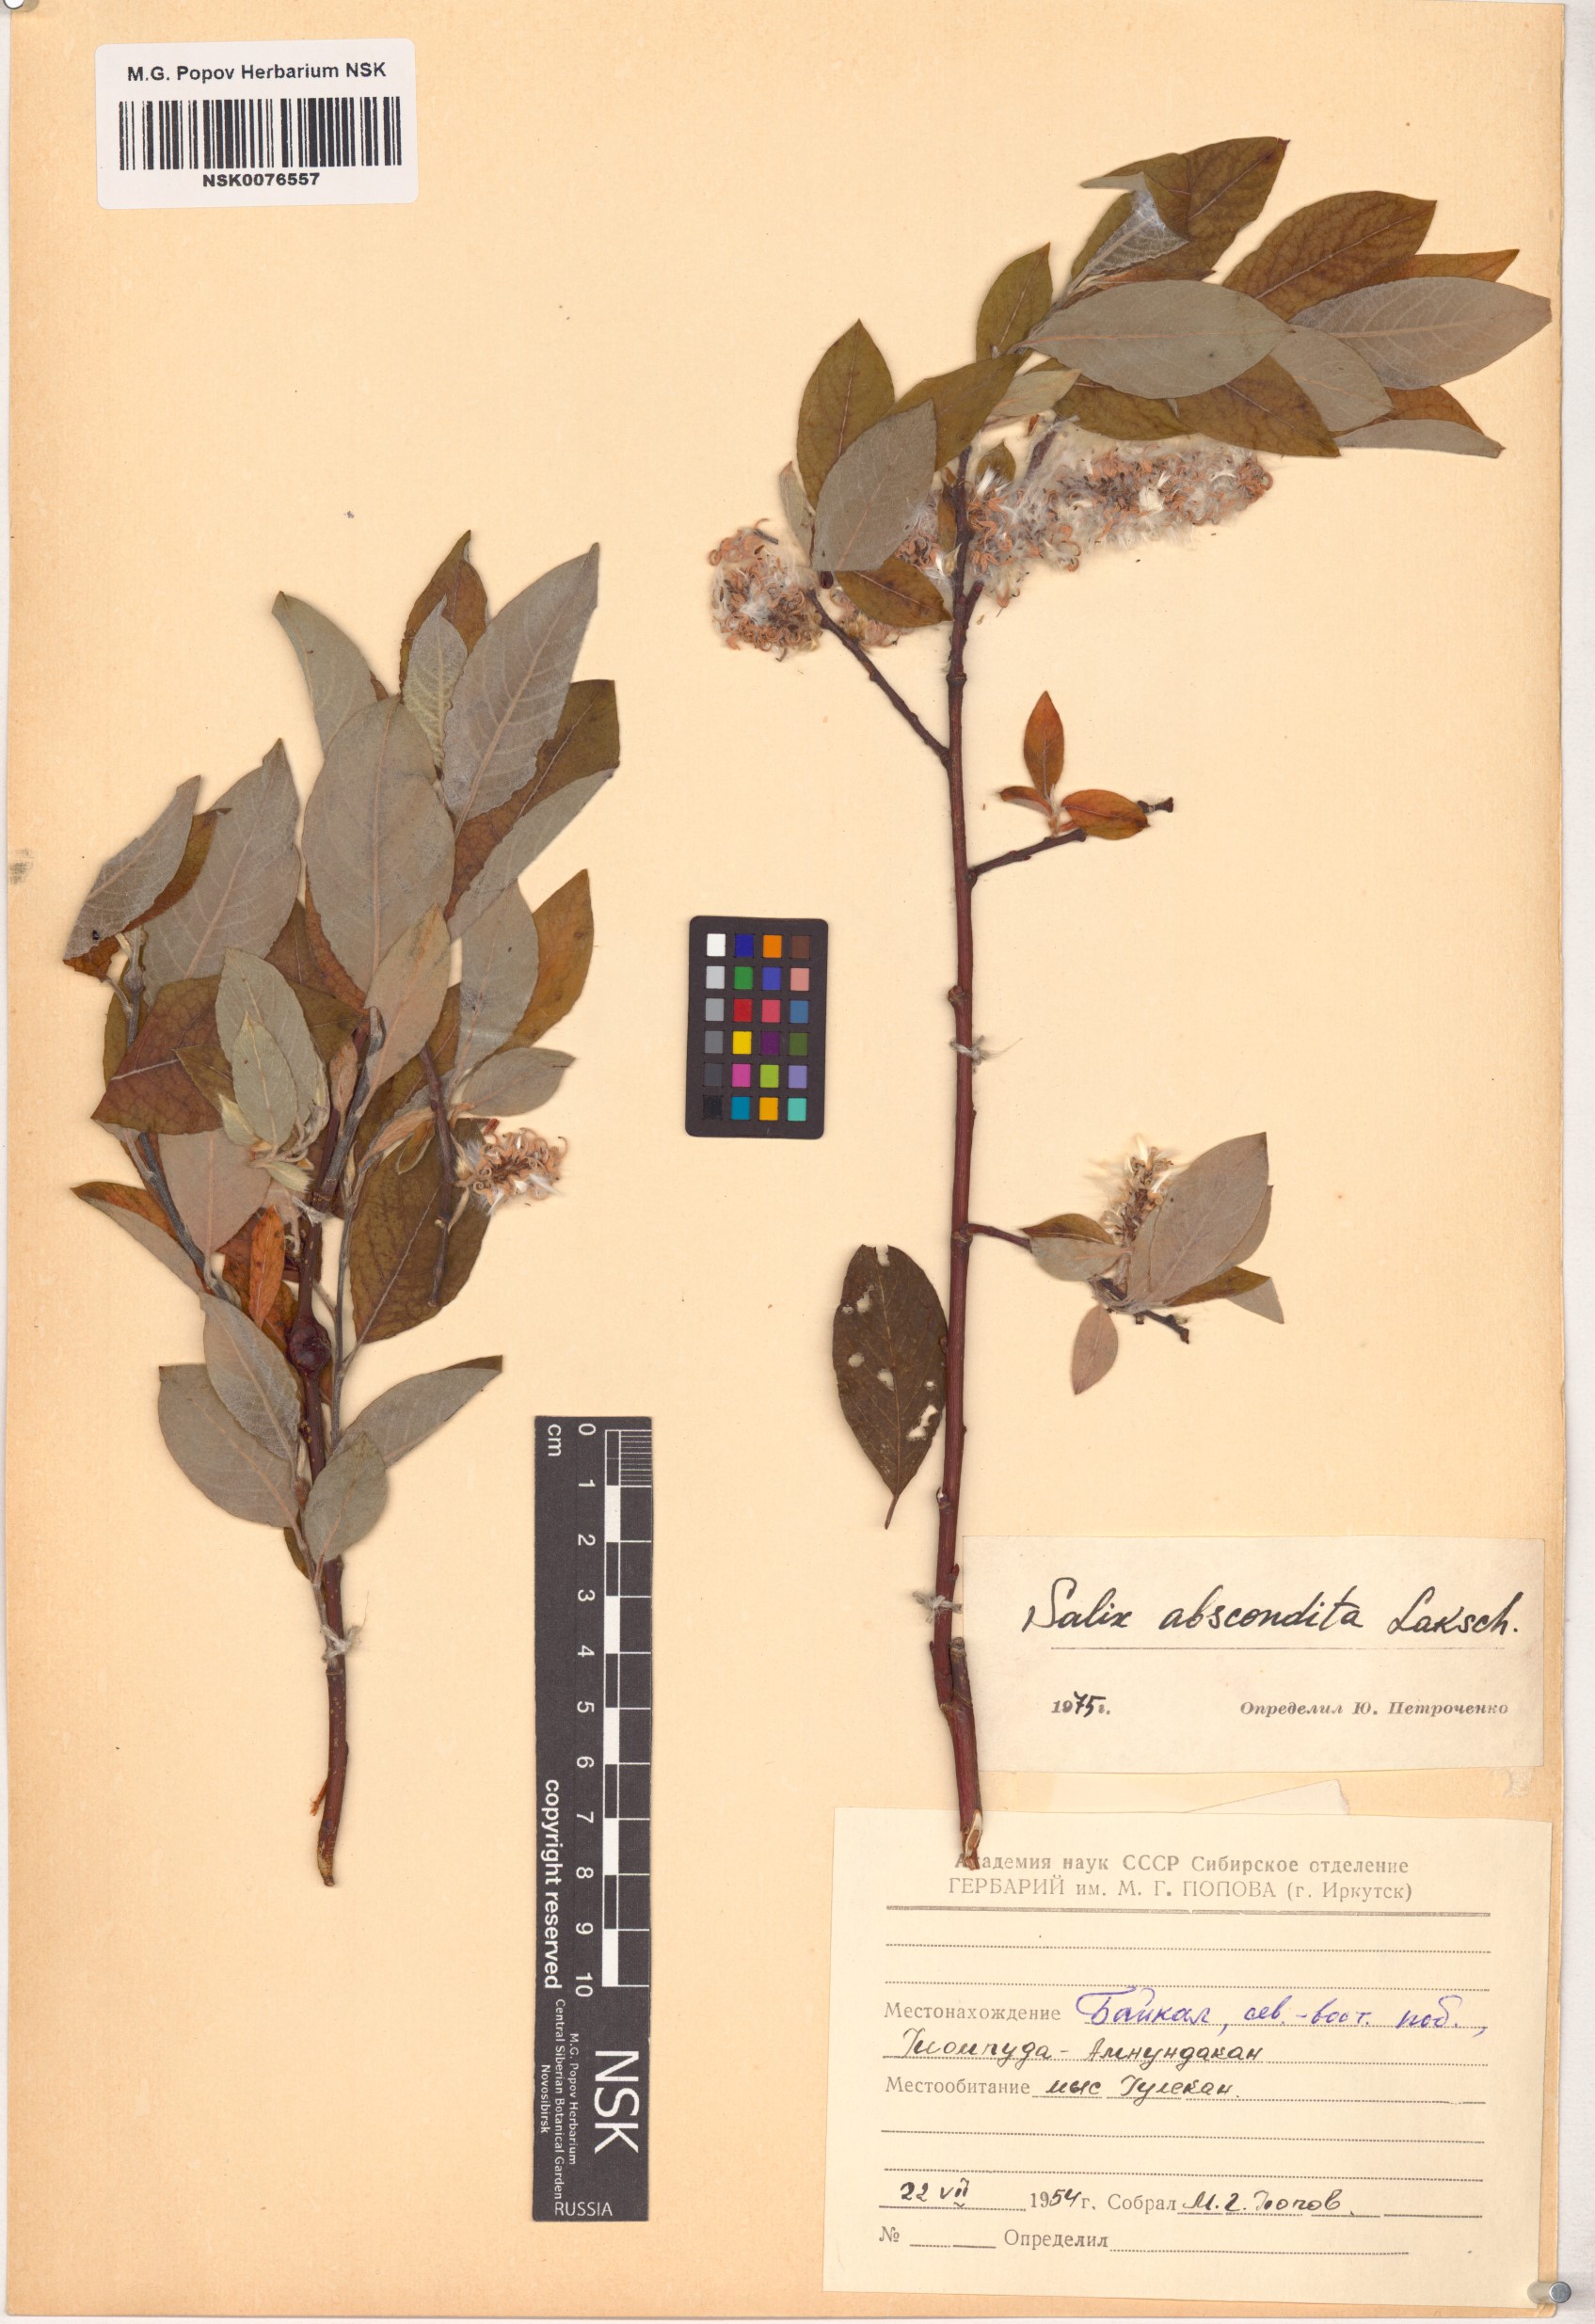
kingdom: Plantae
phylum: Tracheophyta
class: Magnoliopsida
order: Malpighiales
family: Salicaceae
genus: Salix
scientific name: Salix abscondita
